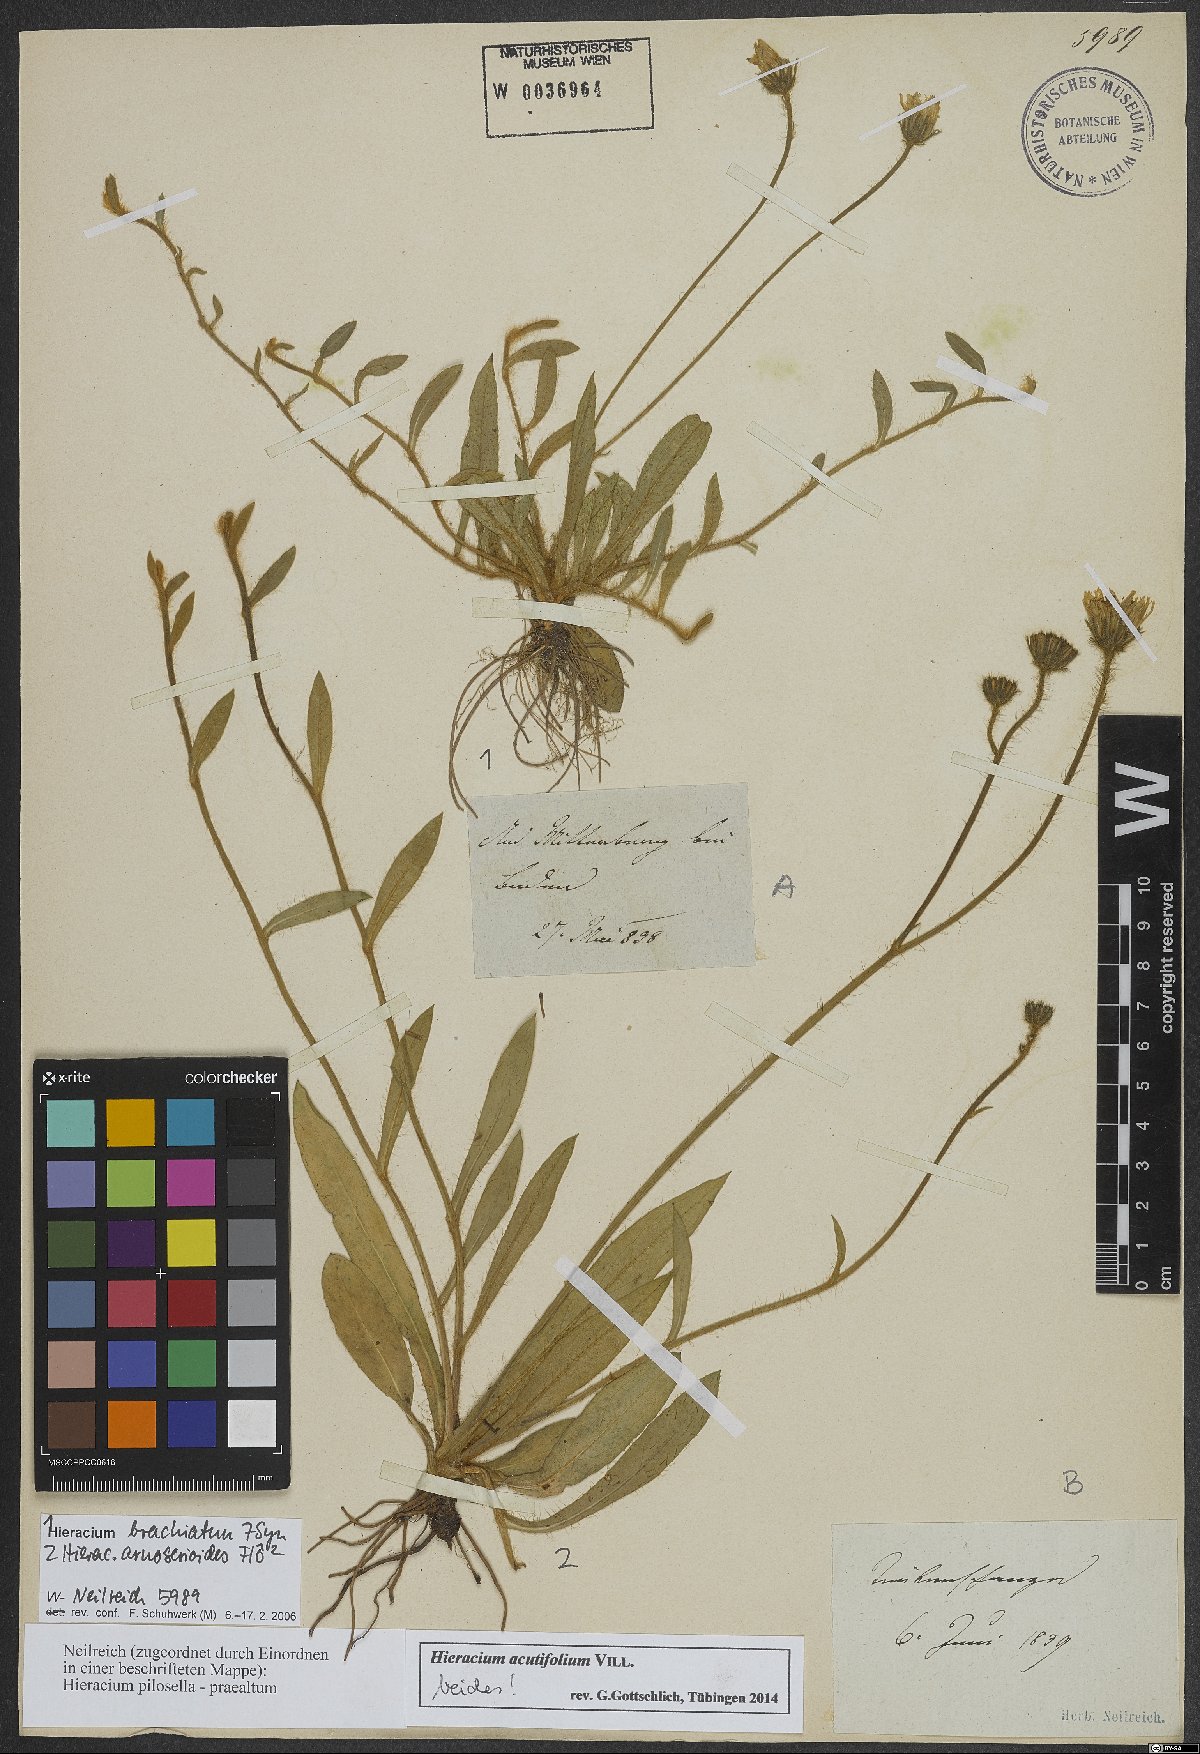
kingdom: Plantae
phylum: Tracheophyta
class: Magnoliopsida
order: Asterales
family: Asteraceae
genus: Pilosella
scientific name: Pilosella acutifolia
